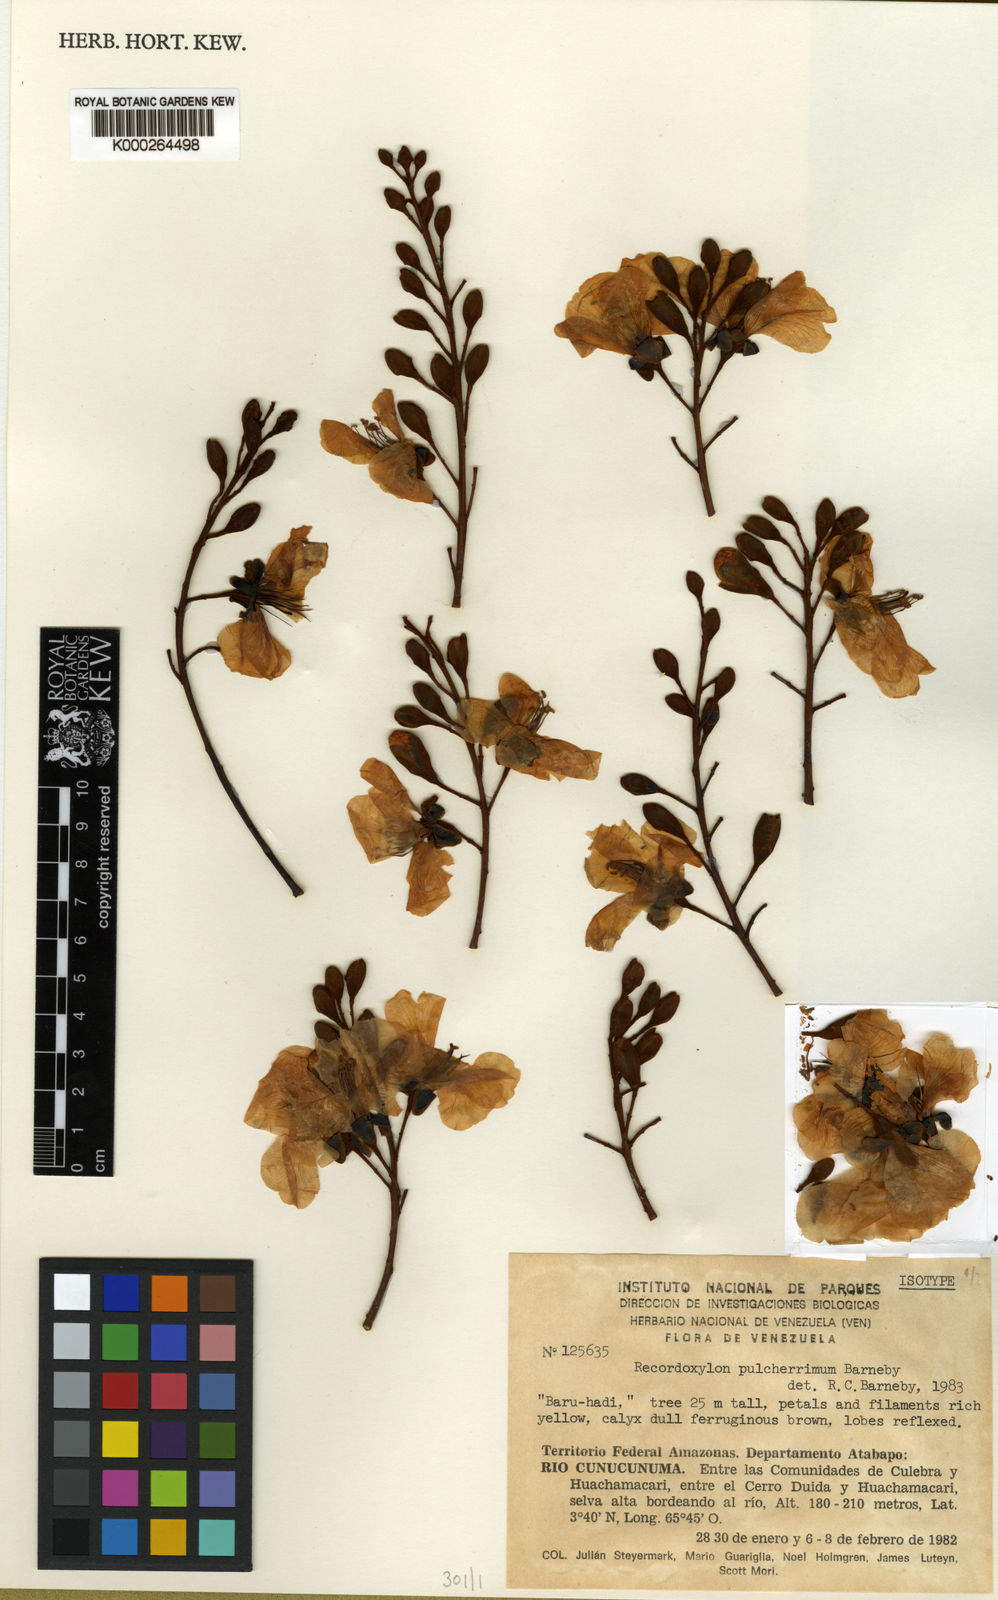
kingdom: Plantae
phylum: Tracheophyta
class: Magnoliopsida
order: Fabales
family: Fabaceae
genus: Recordoxylon
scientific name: Recordoxylon pulcherrimum
